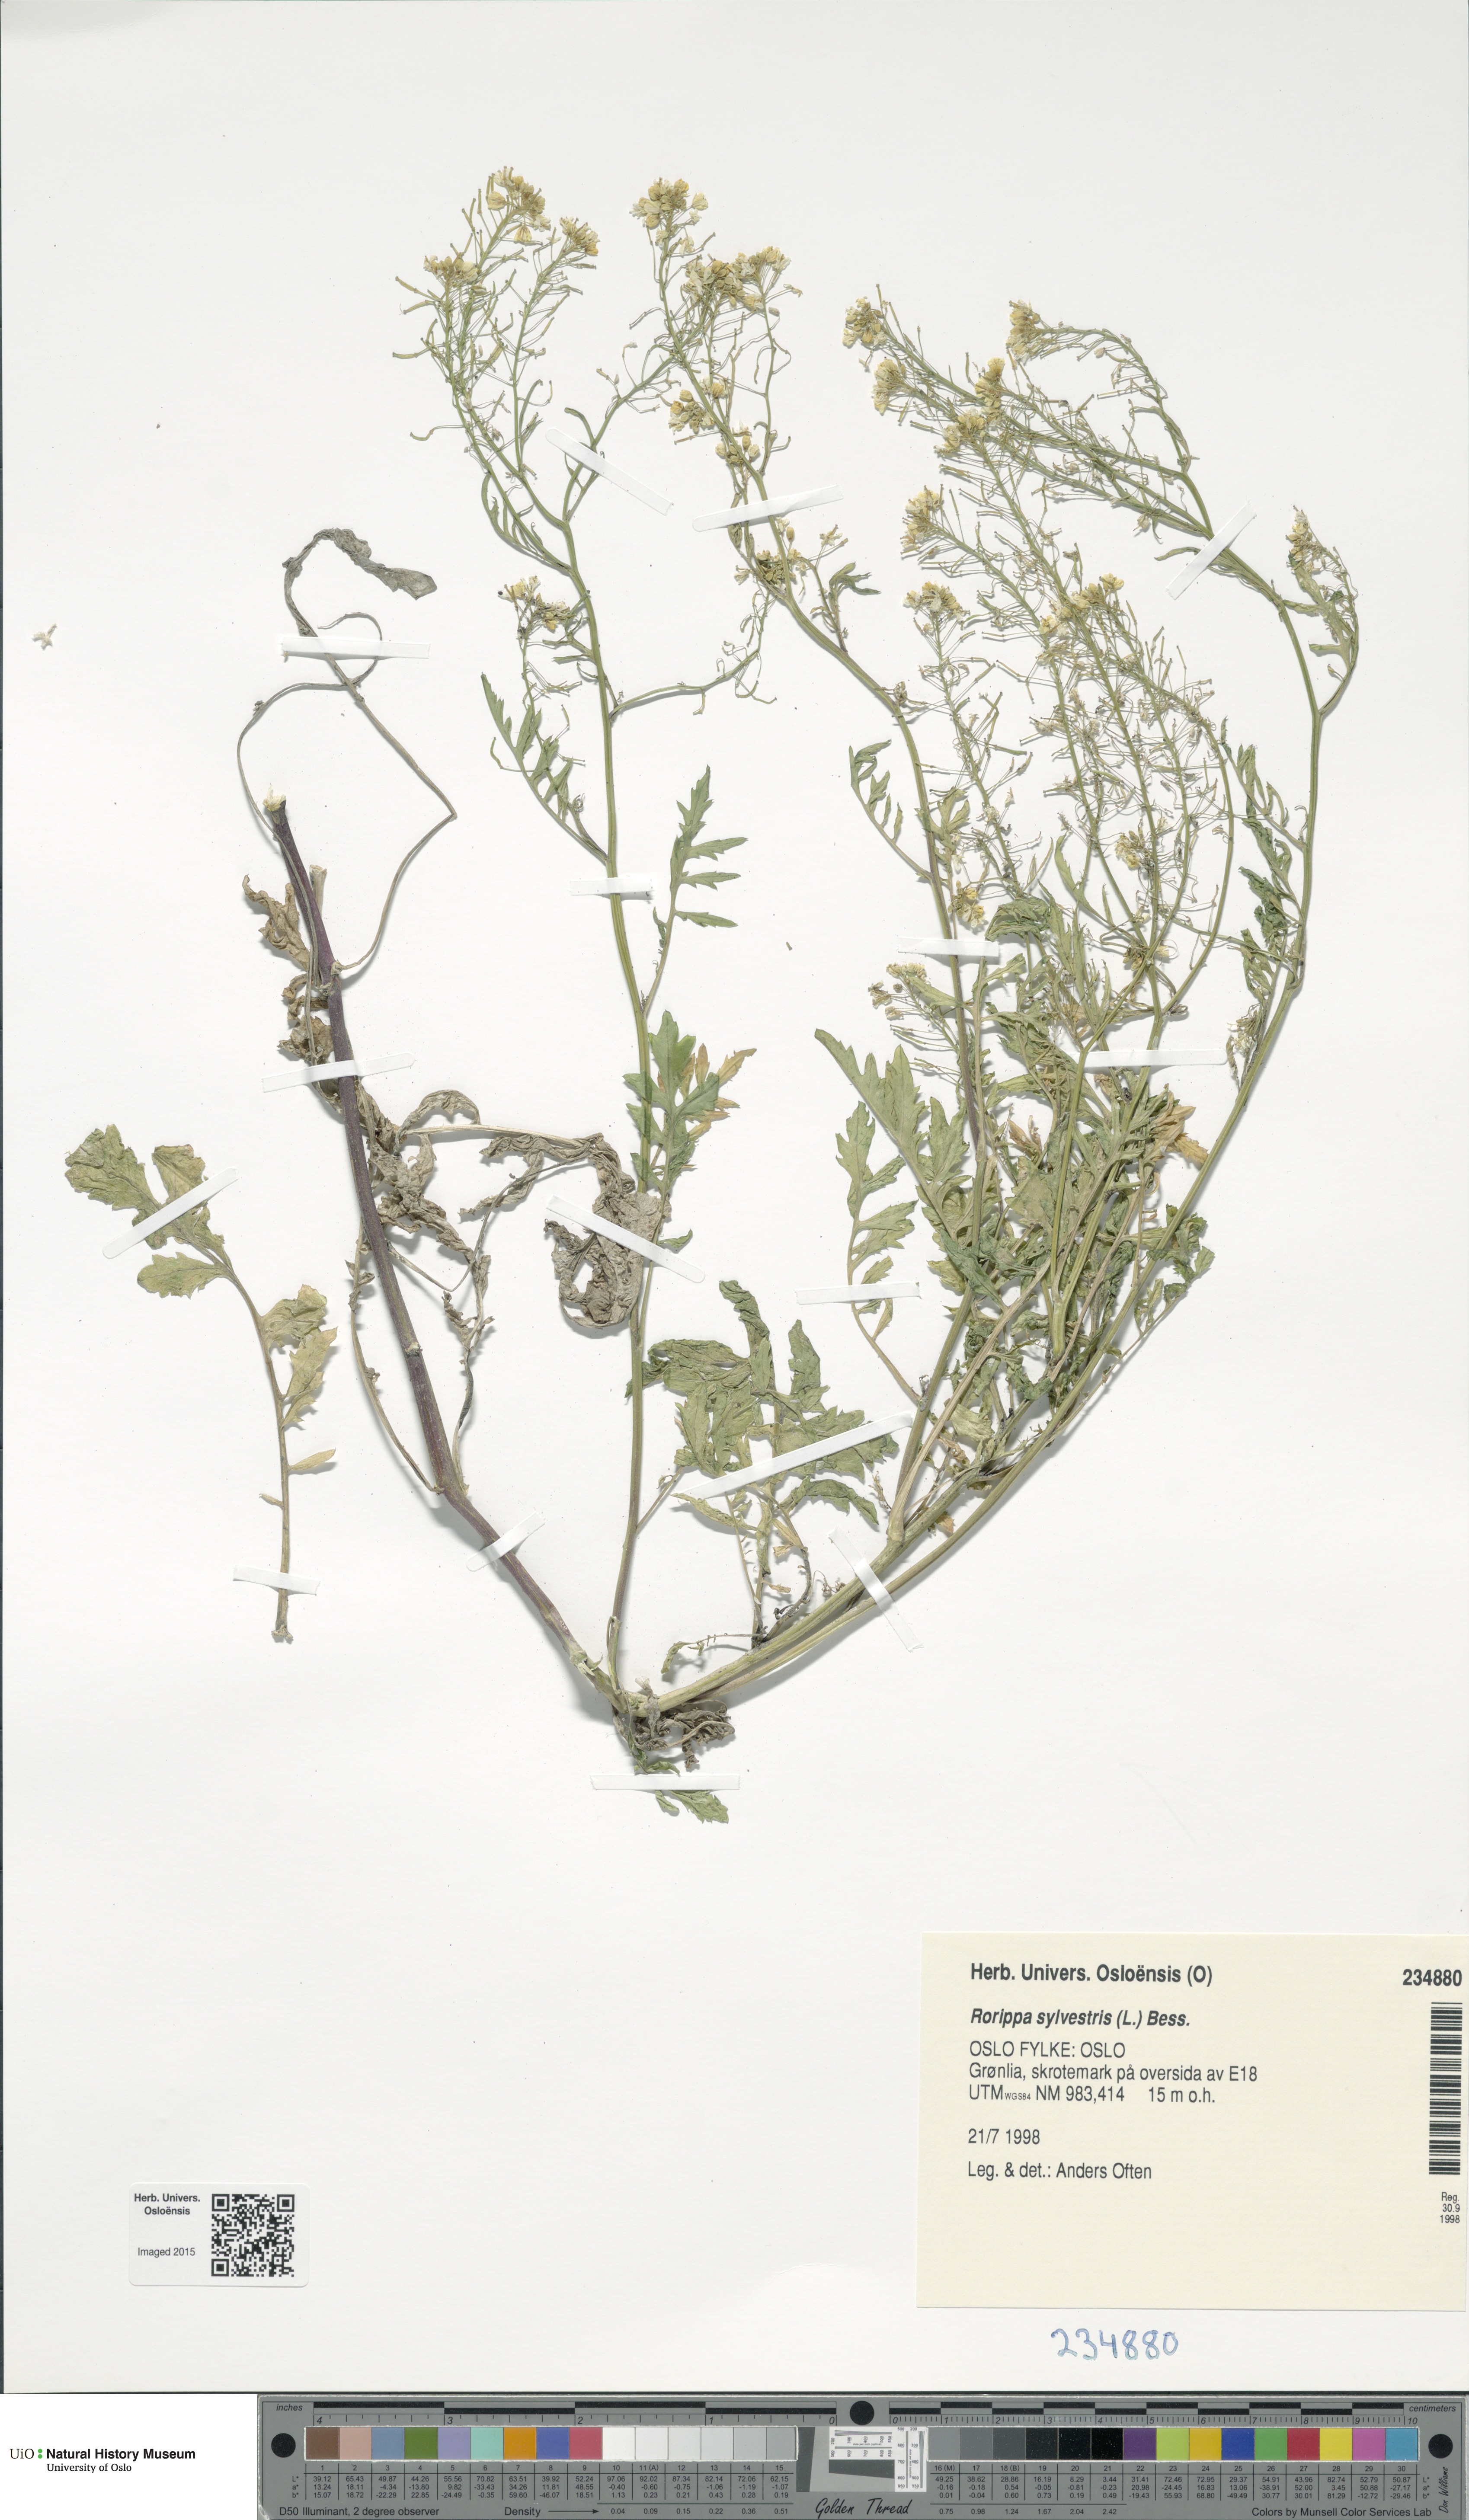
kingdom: Plantae
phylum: Tracheophyta
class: Magnoliopsida
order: Brassicales
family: Brassicaceae
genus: Rorippa
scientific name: Rorippa sylvestris
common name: Creeping yellowcress
